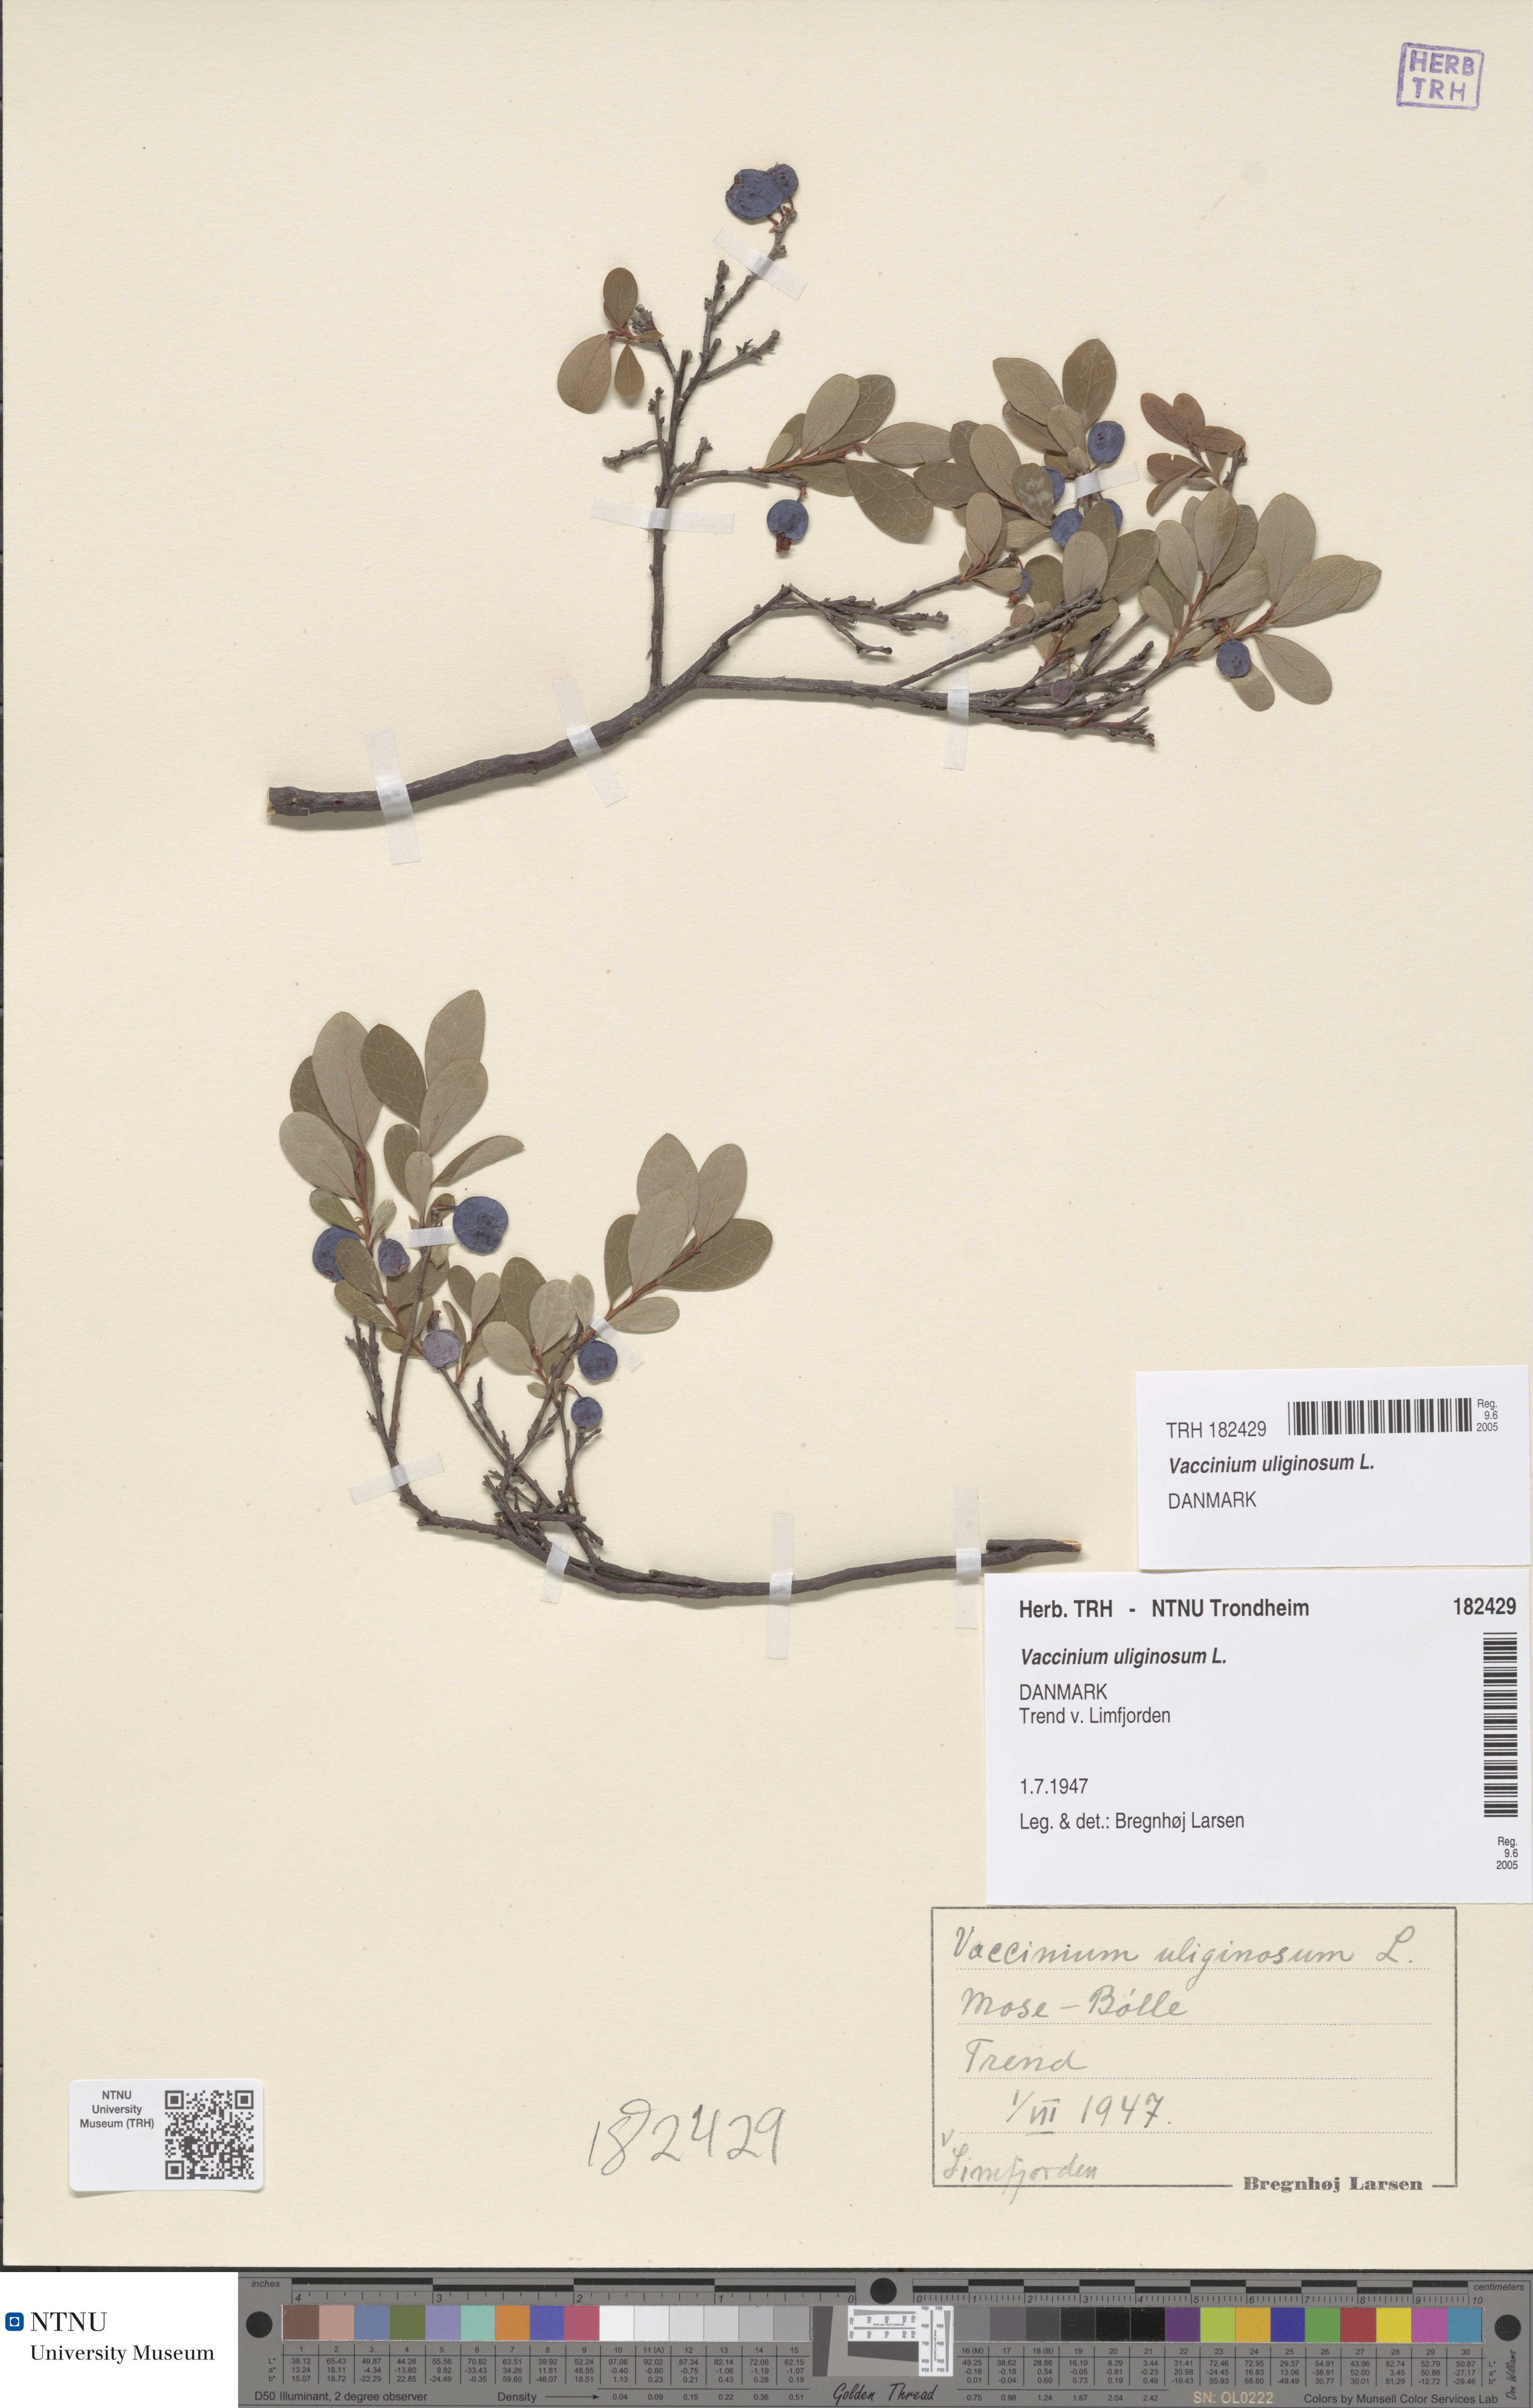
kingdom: Plantae
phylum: Tracheophyta
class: Magnoliopsida
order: Ericales
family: Ericaceae
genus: Vaccinium
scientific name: Vaccinium uliginosum
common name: Bog bilberry
